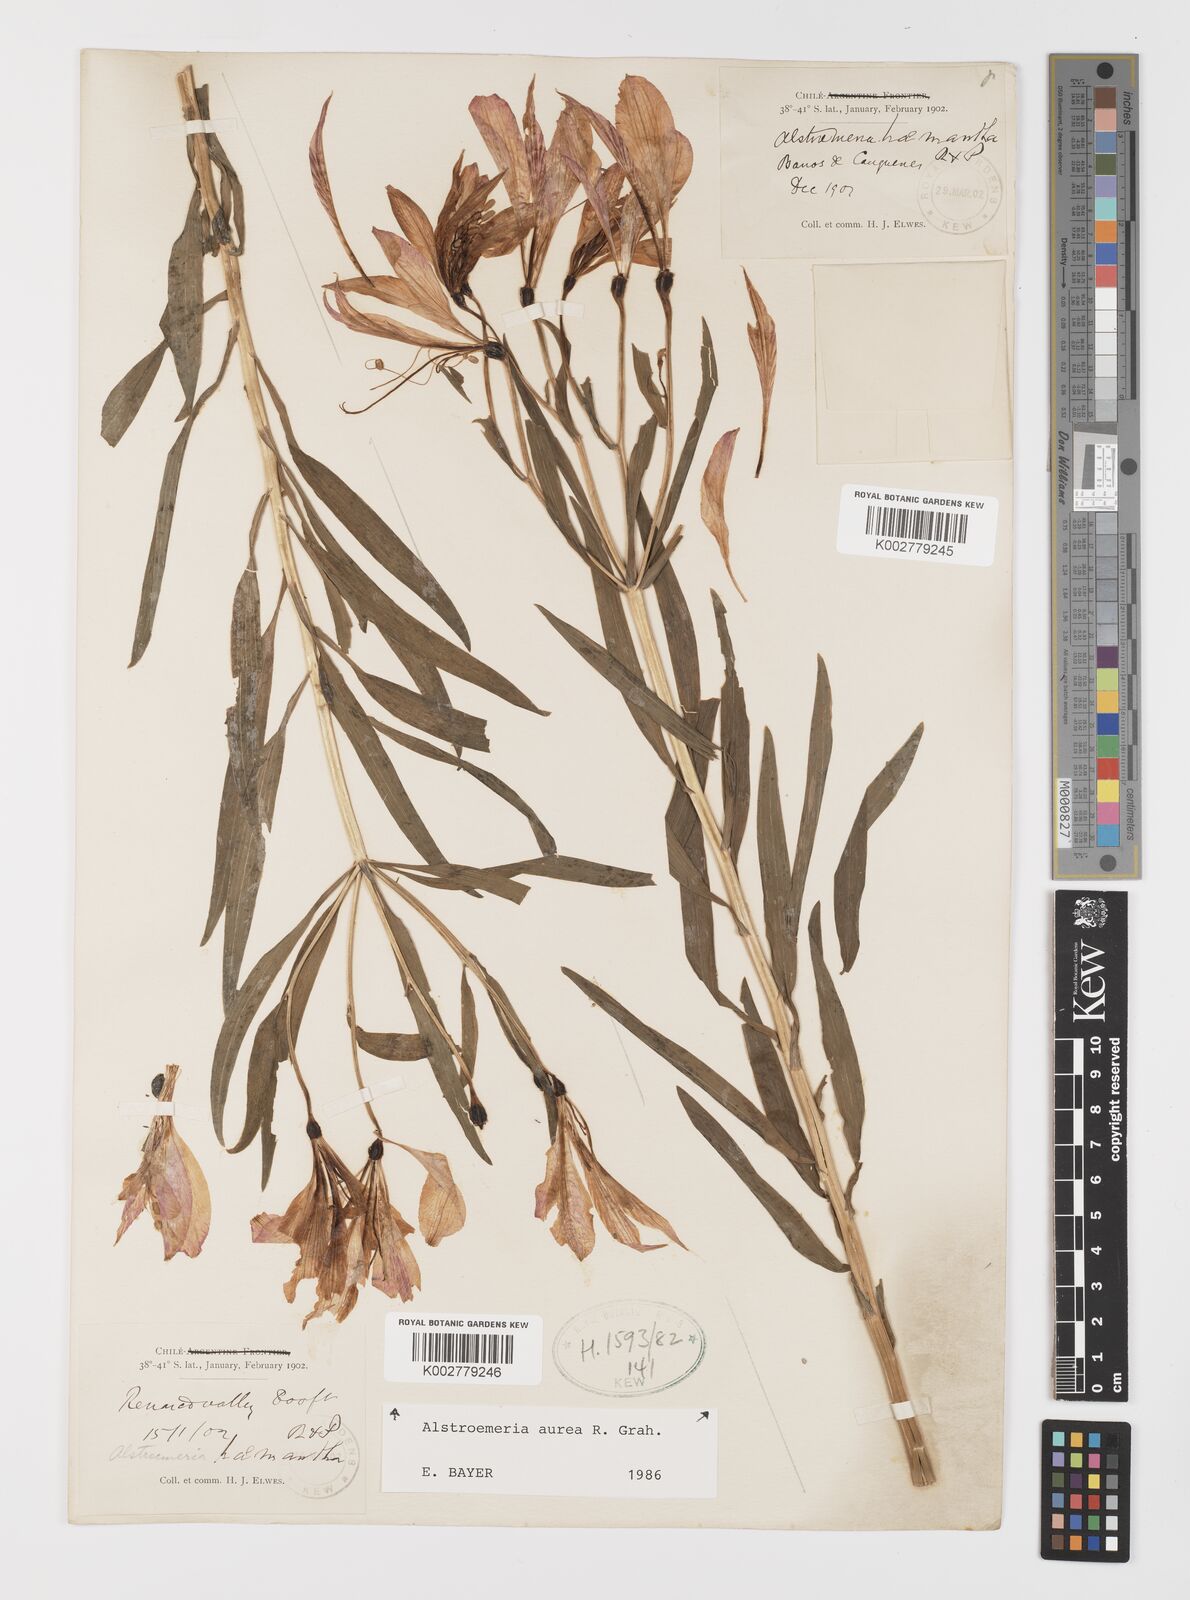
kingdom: Plantae
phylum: Tracheophyta
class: Liliopsida
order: Liliales
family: Alstroemeriaceae
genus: Alstroemeria
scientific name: Alstroemeria aurea
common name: Peruvian lily
